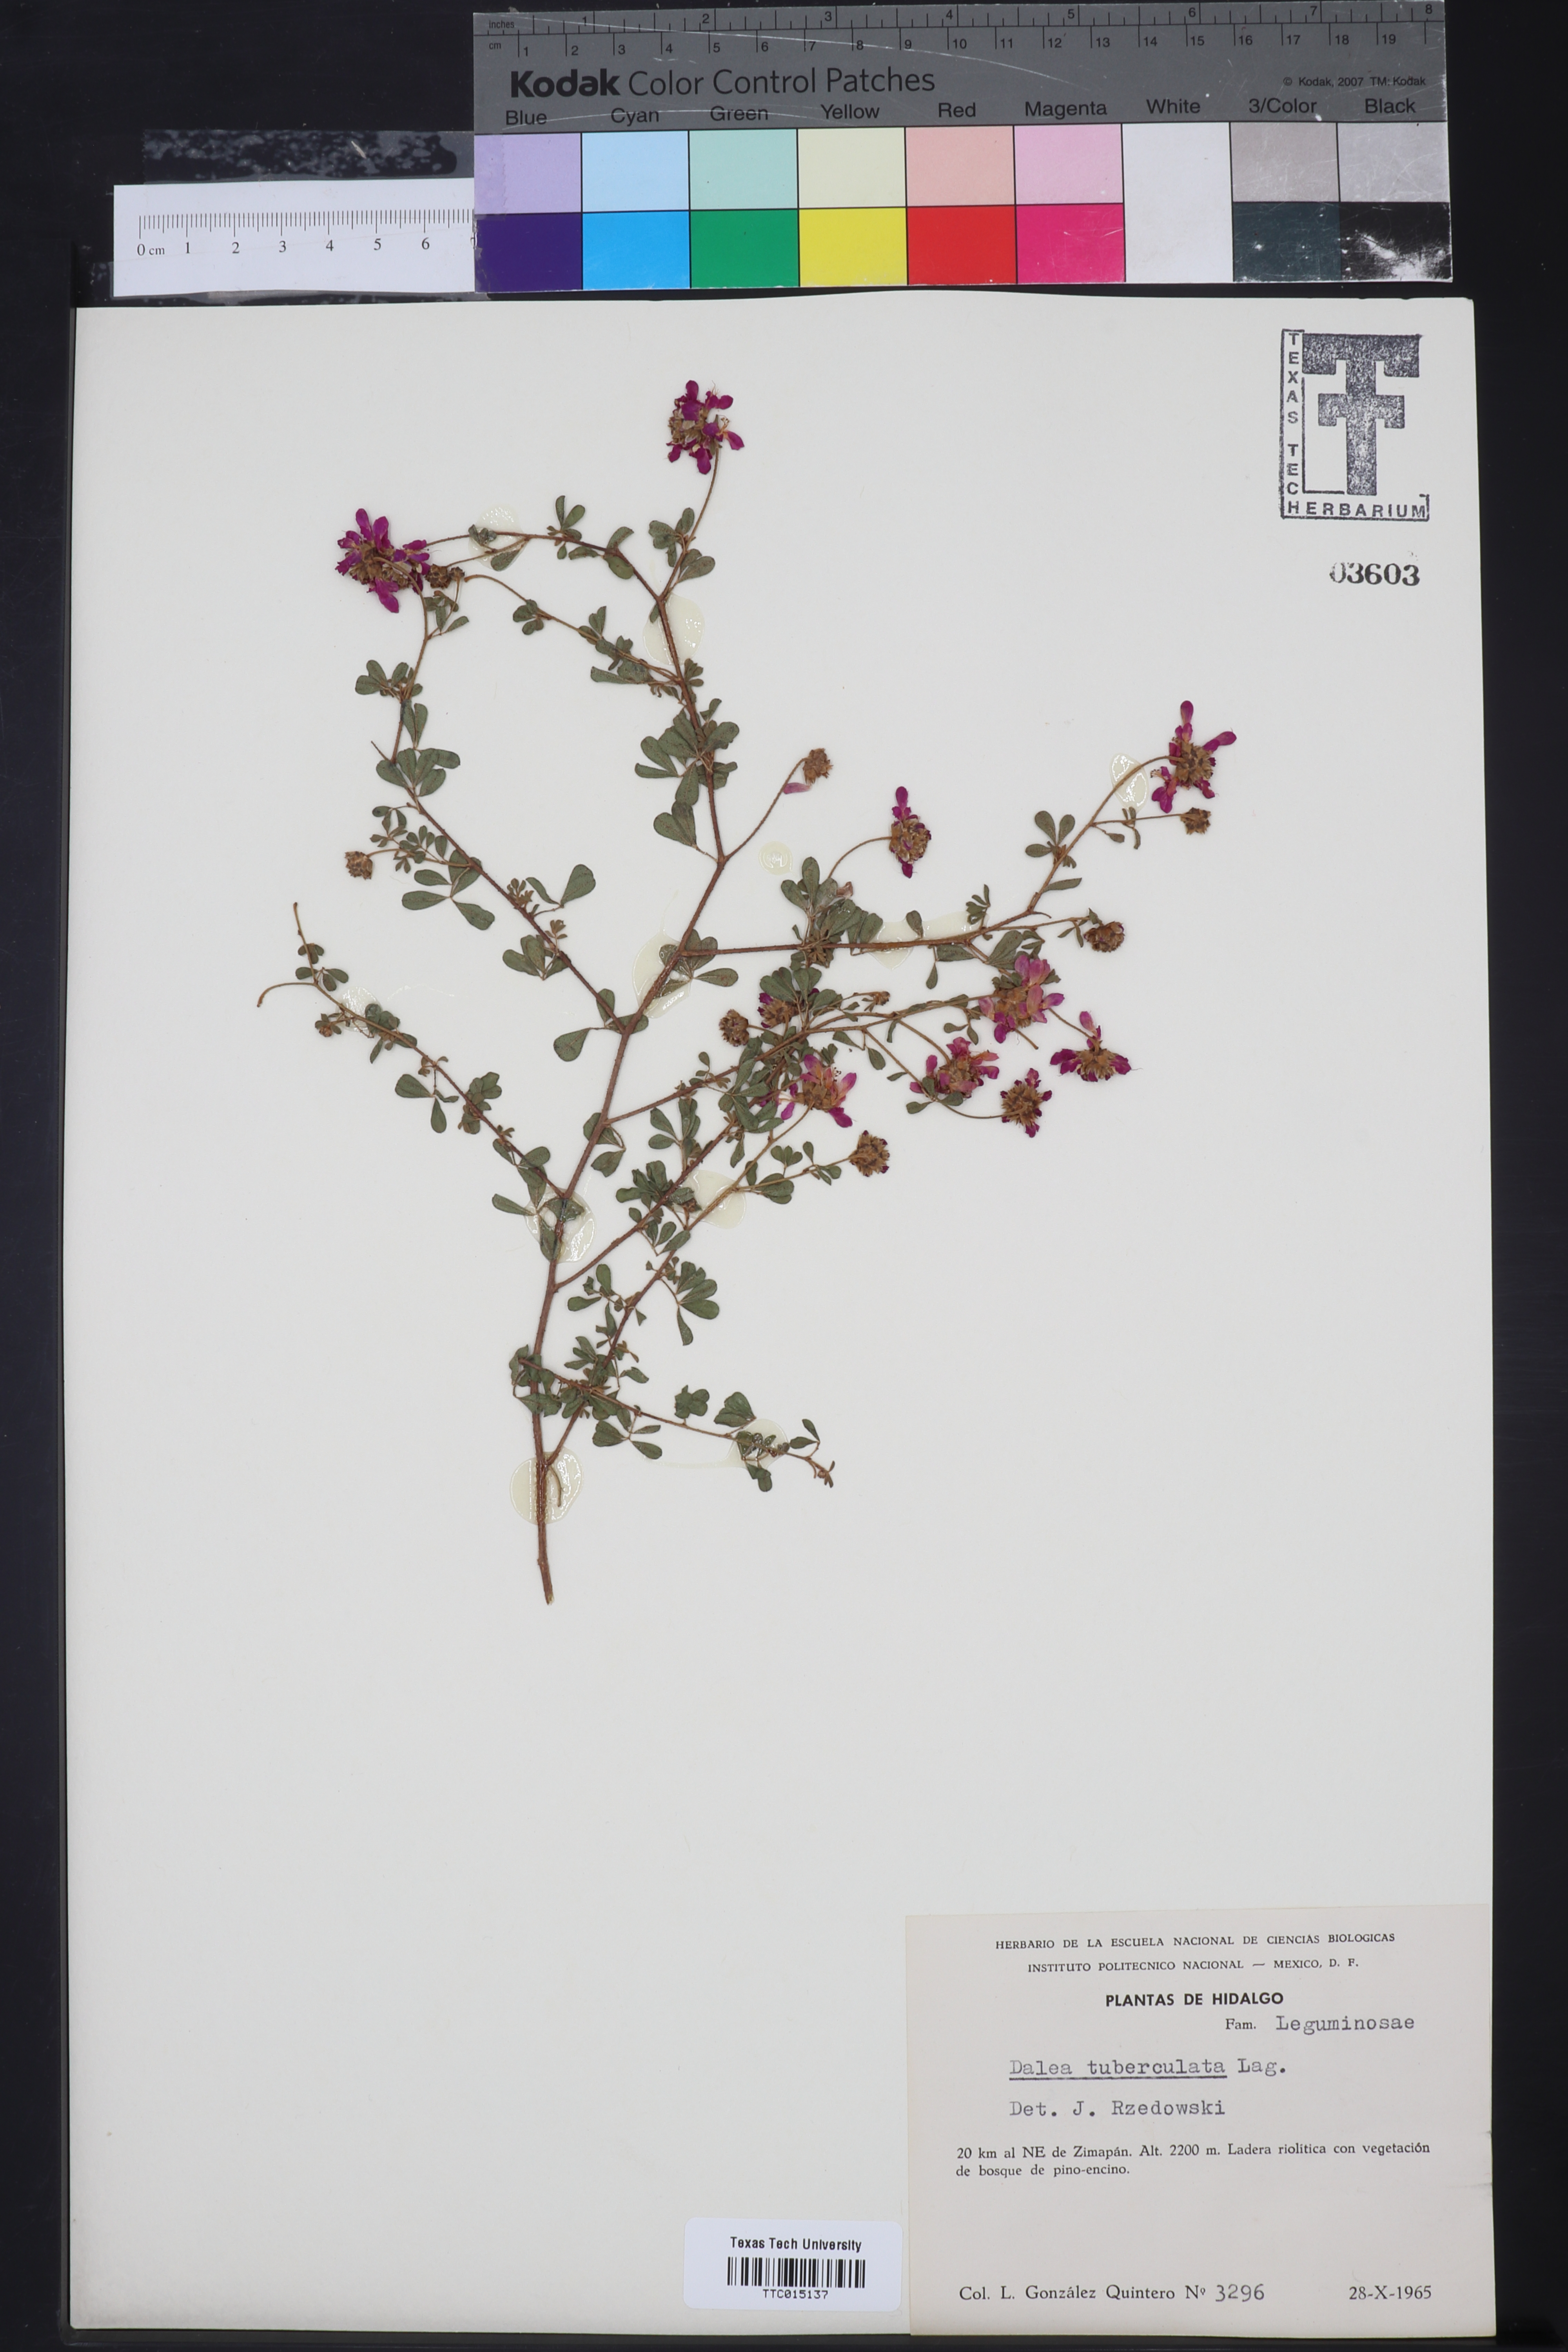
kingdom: Plantae
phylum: Tracheophyta
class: Magnoliopsida
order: Fabales
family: Fabaceae
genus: Dalea
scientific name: Dalea bicolor
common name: Silver prairie-clover
